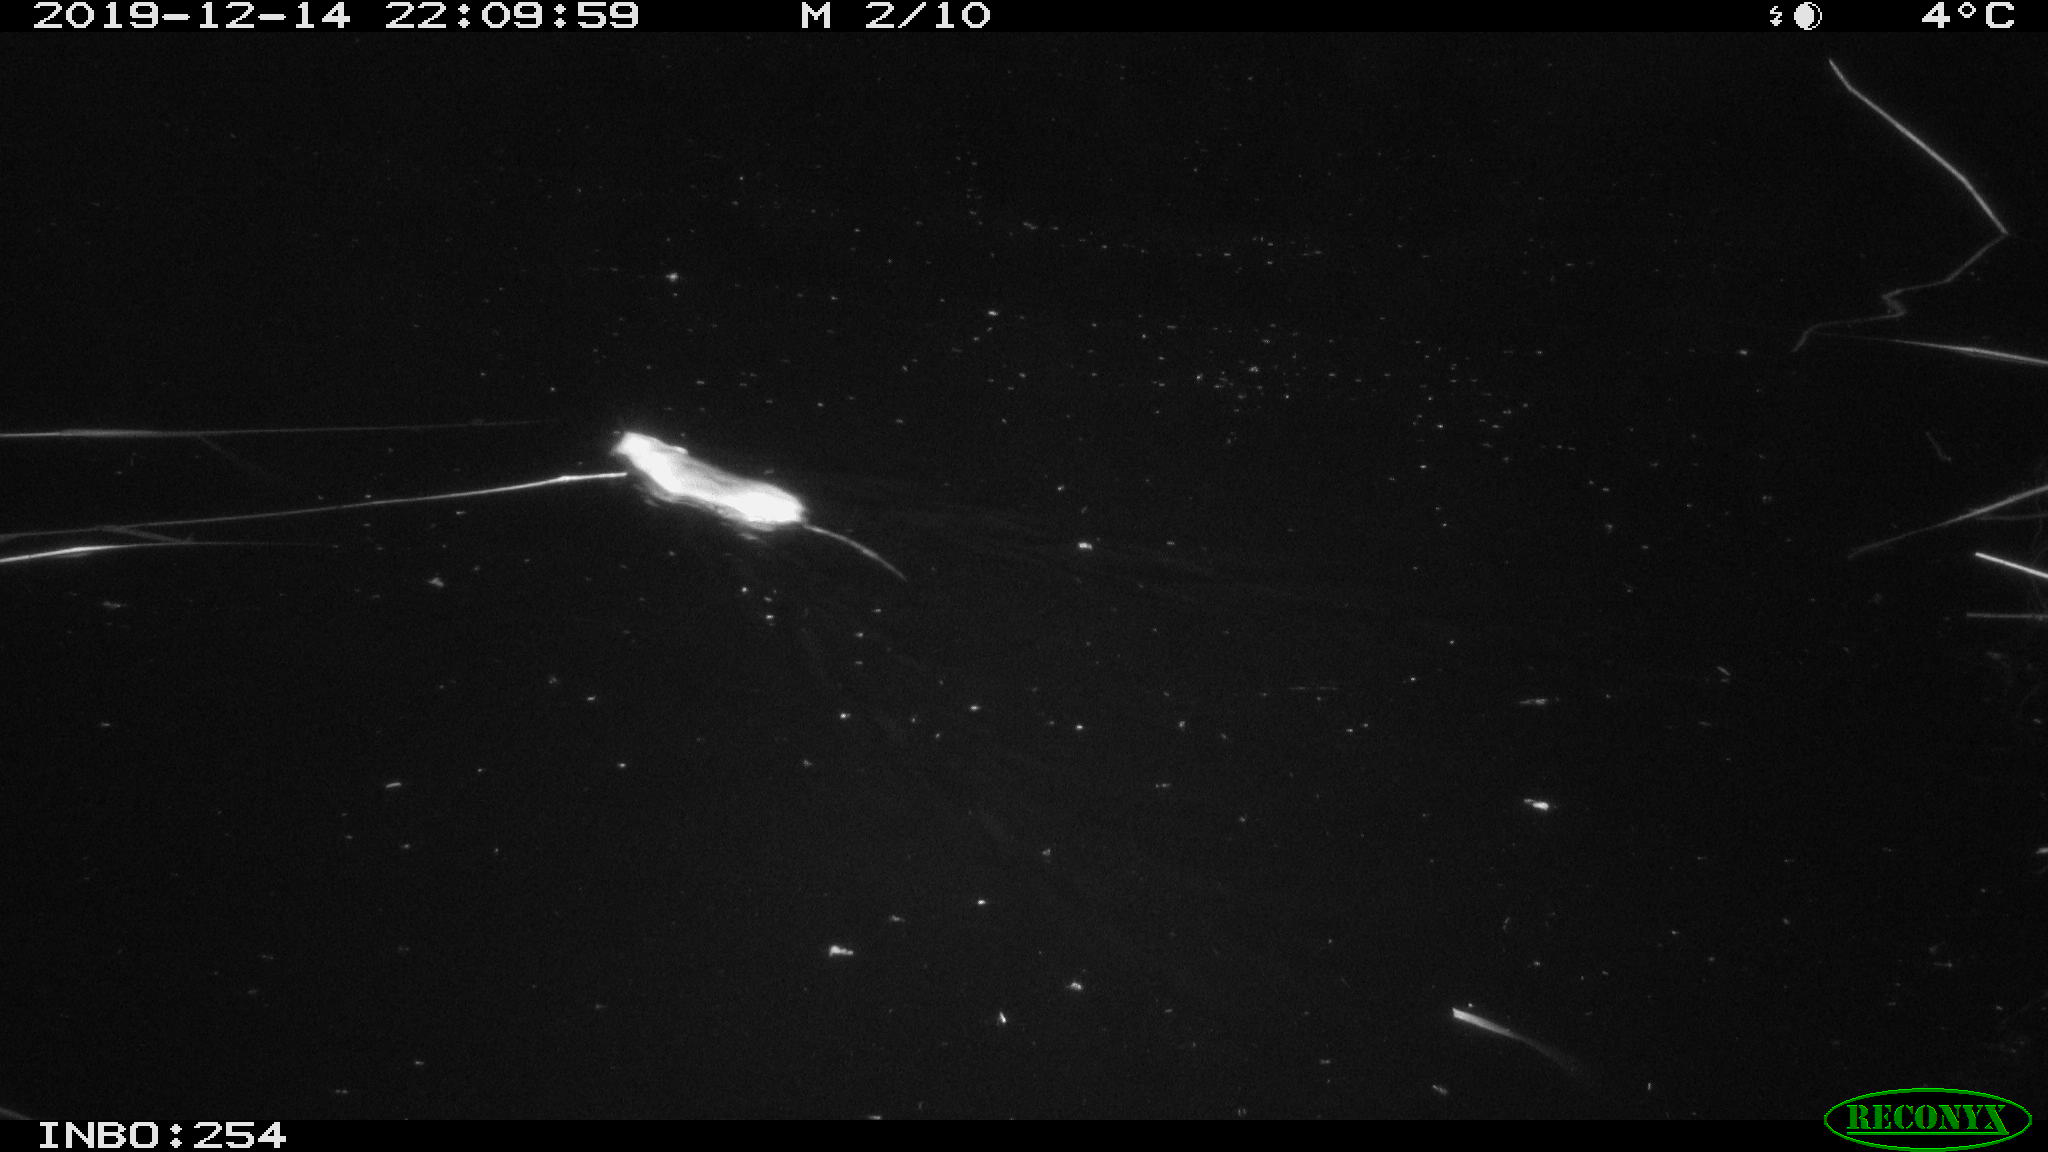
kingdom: Animalia
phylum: Chordata
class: Mammalia
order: Rodentia
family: Muridae
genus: Rattus
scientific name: Rattus norvegicus
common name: Brown rat
